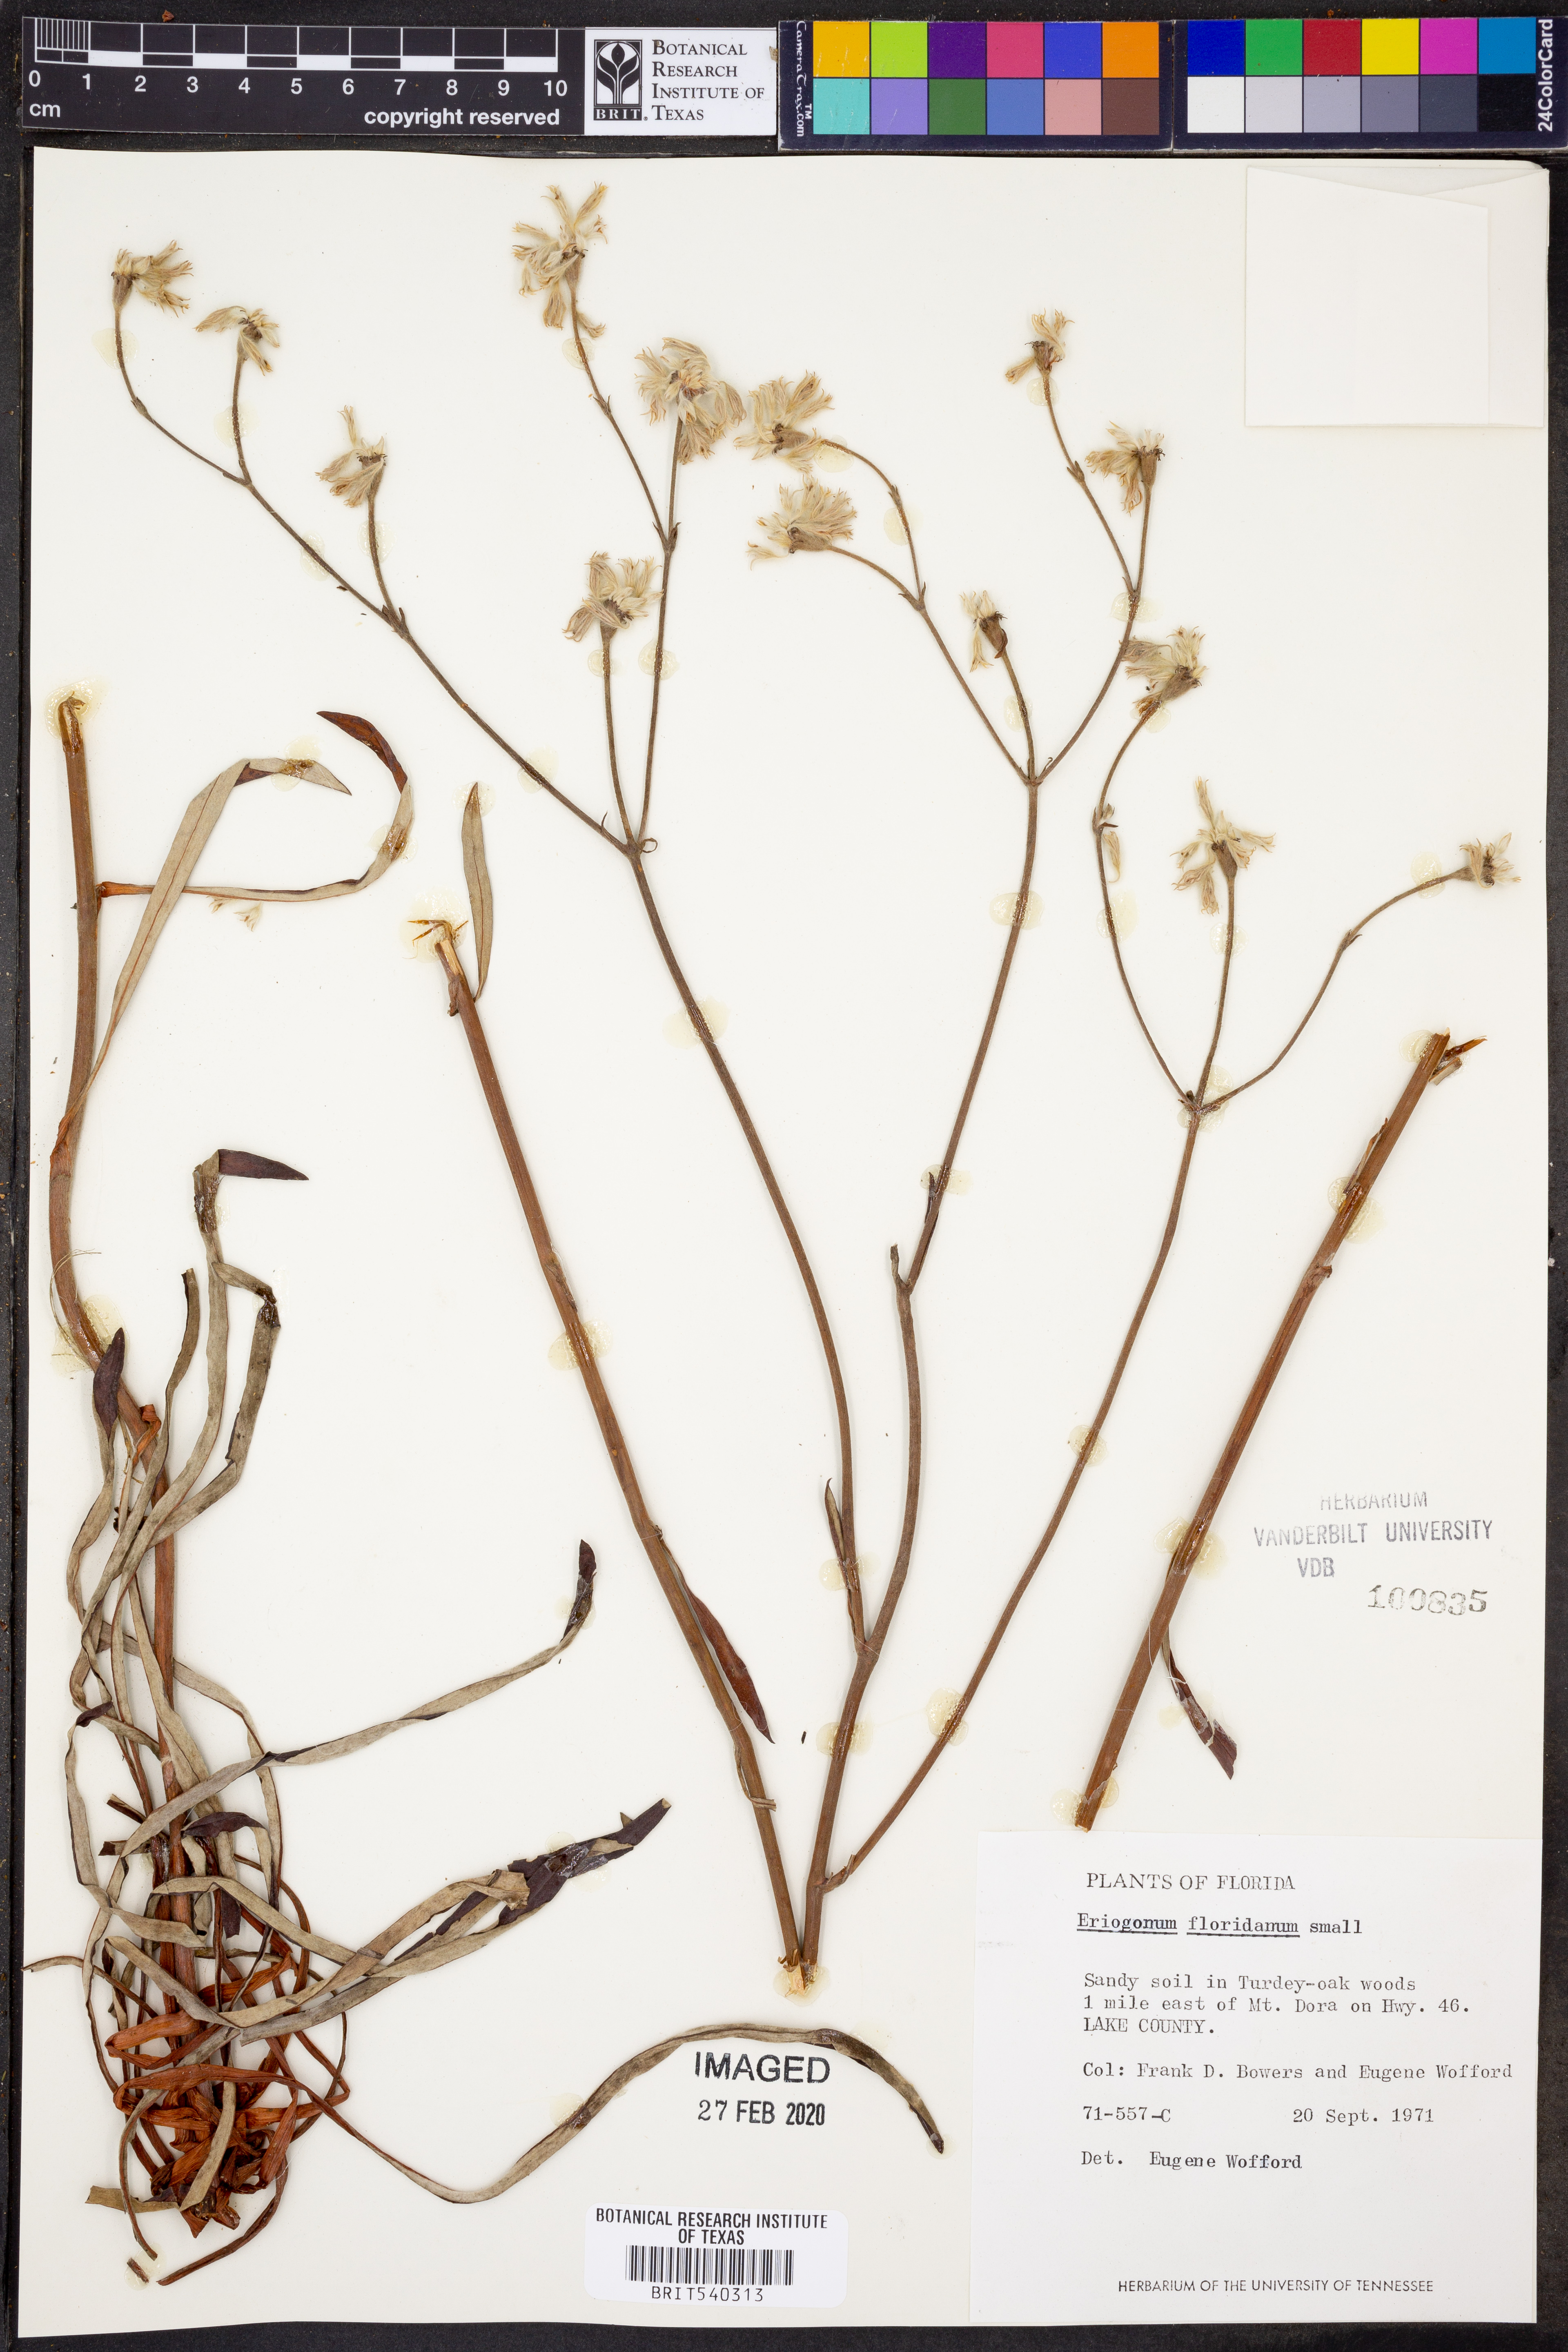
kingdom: Plantae
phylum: Tracheophyta
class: Magnoliopsida
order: Caryophyllales
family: Polygonaceae
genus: Eriogonum
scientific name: Eriogonum longifolium
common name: Longleaf wild buckwheat
